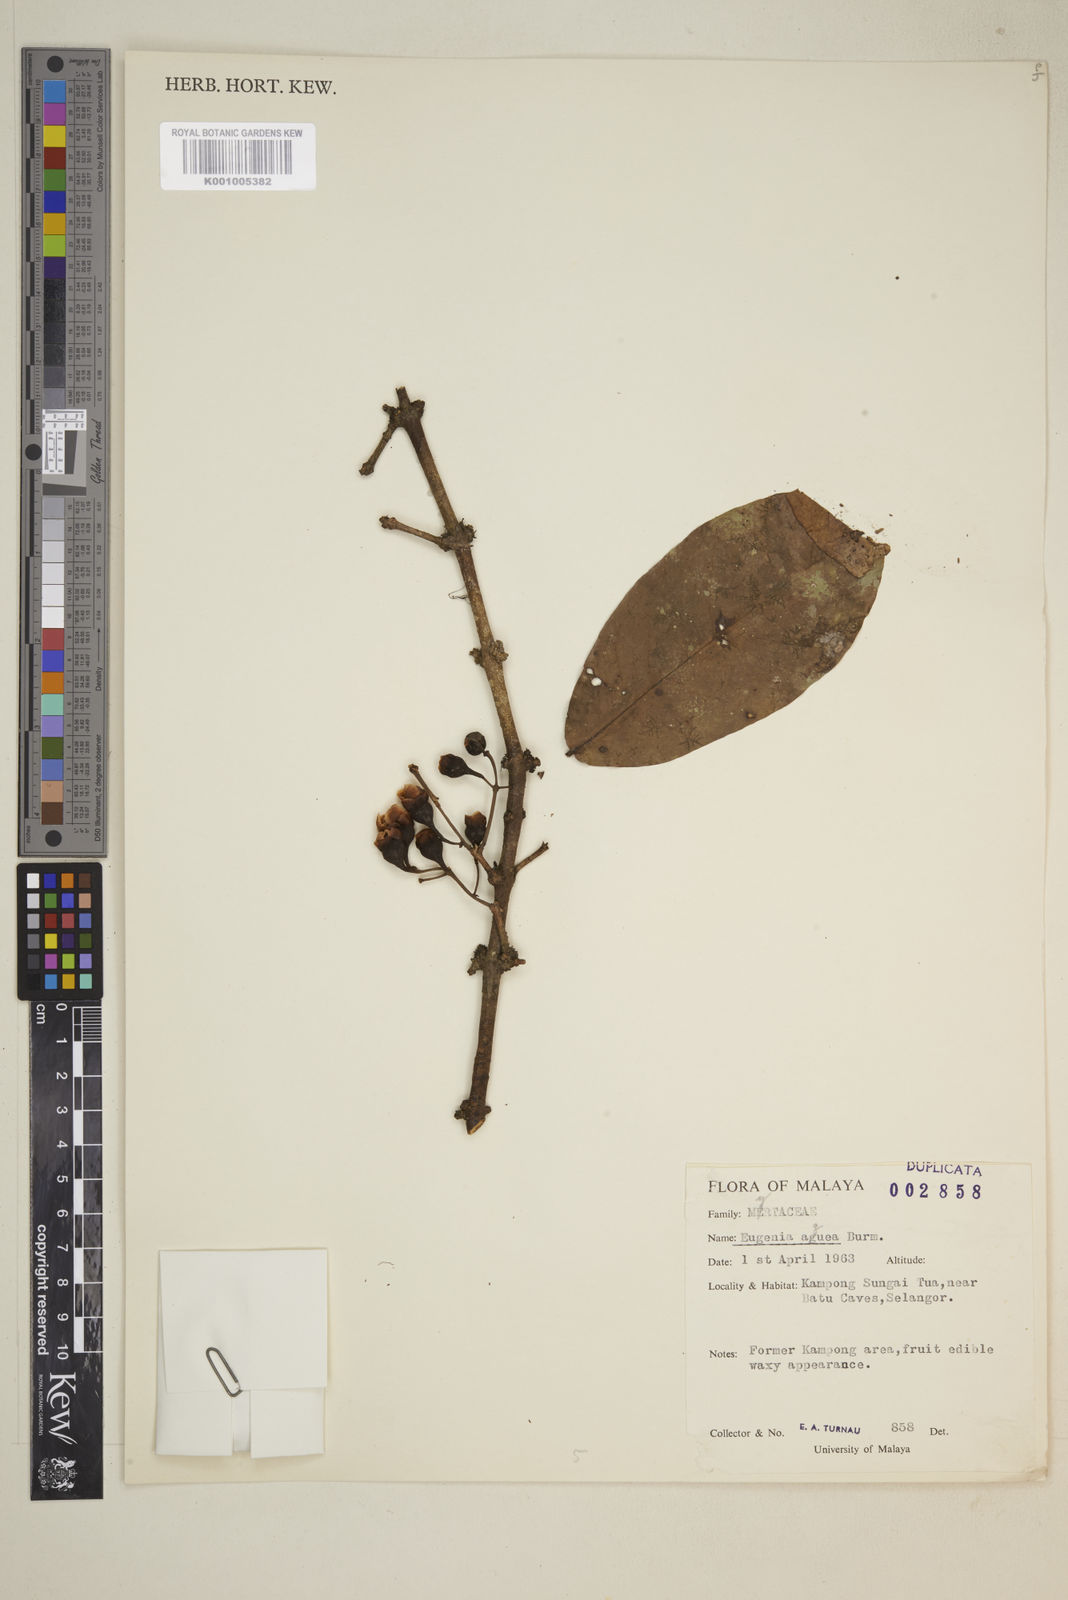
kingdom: Plantae
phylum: Tracheophyta
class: Magnoliopsida
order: Myrtales
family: Myrtaceae
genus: Syzygium
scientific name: Syzygium aqueum
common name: Water-apple
